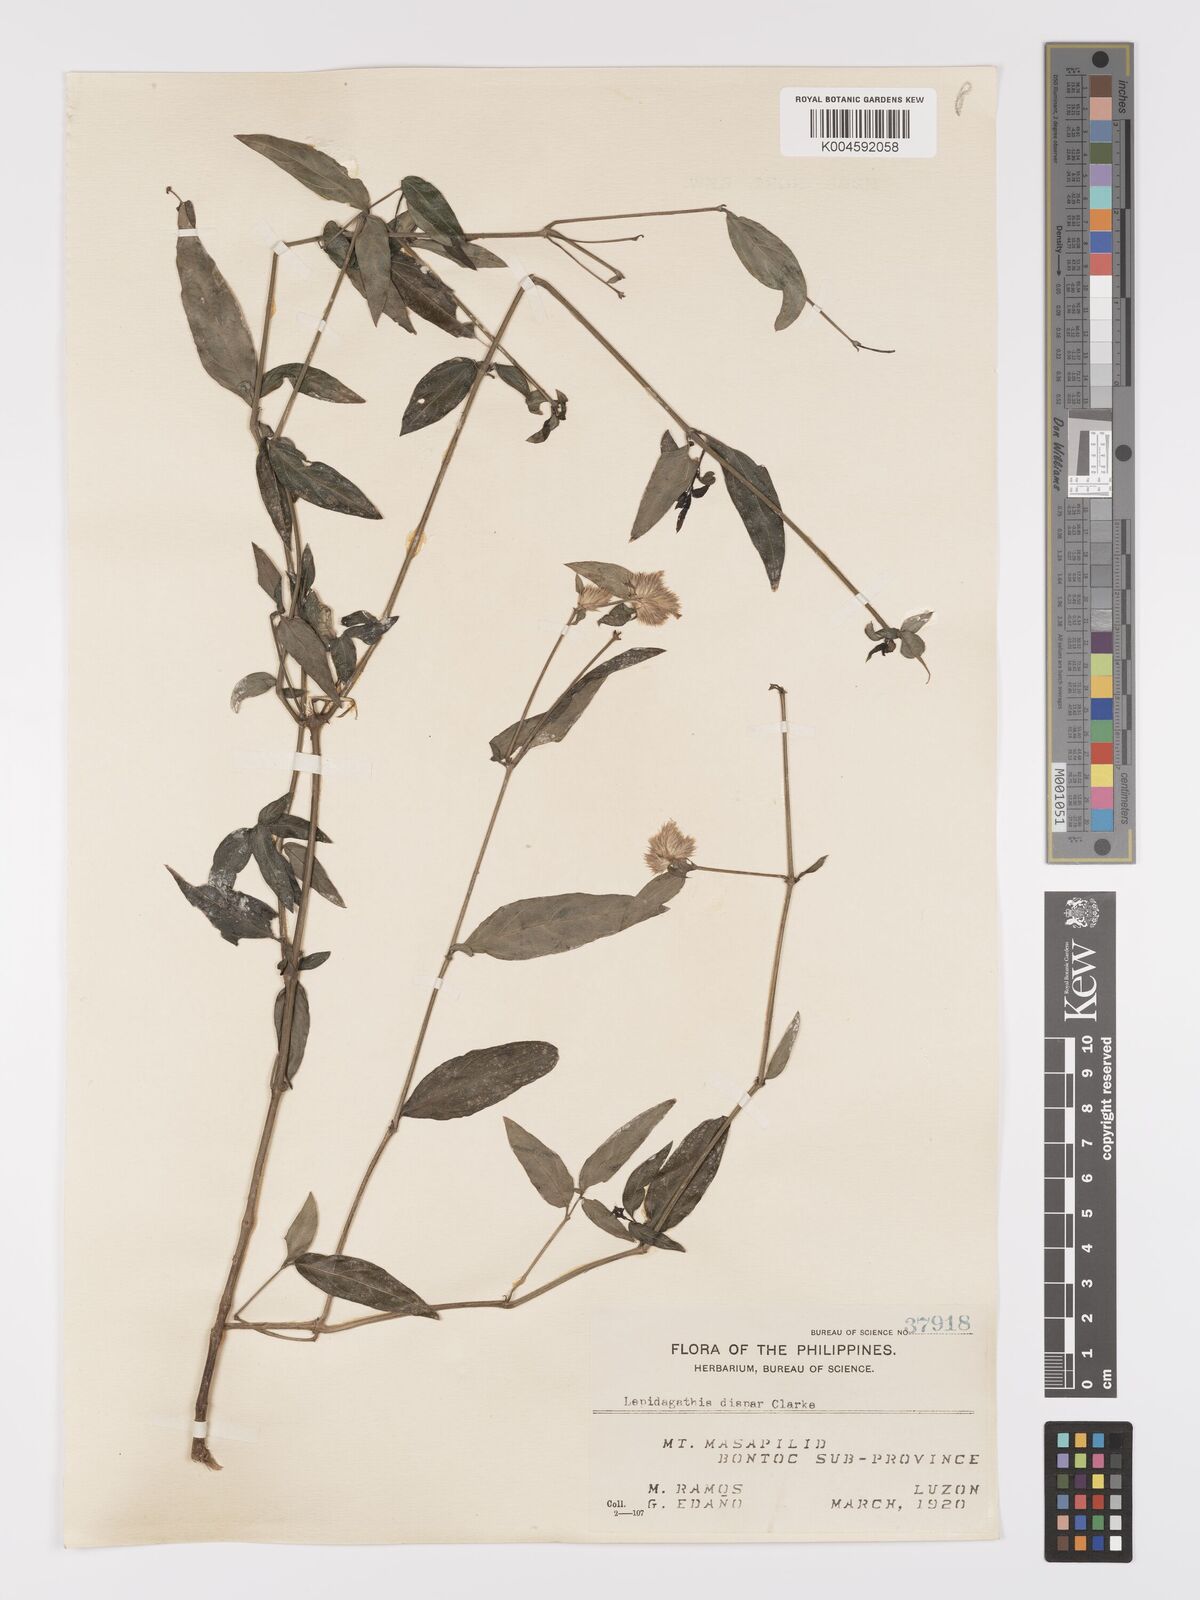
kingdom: Plantae
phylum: Tracheophyta
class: Magnoliopsida
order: Lamiales
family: Acanthaceae
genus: Lepidagathis
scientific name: Lepidagathis dispar
